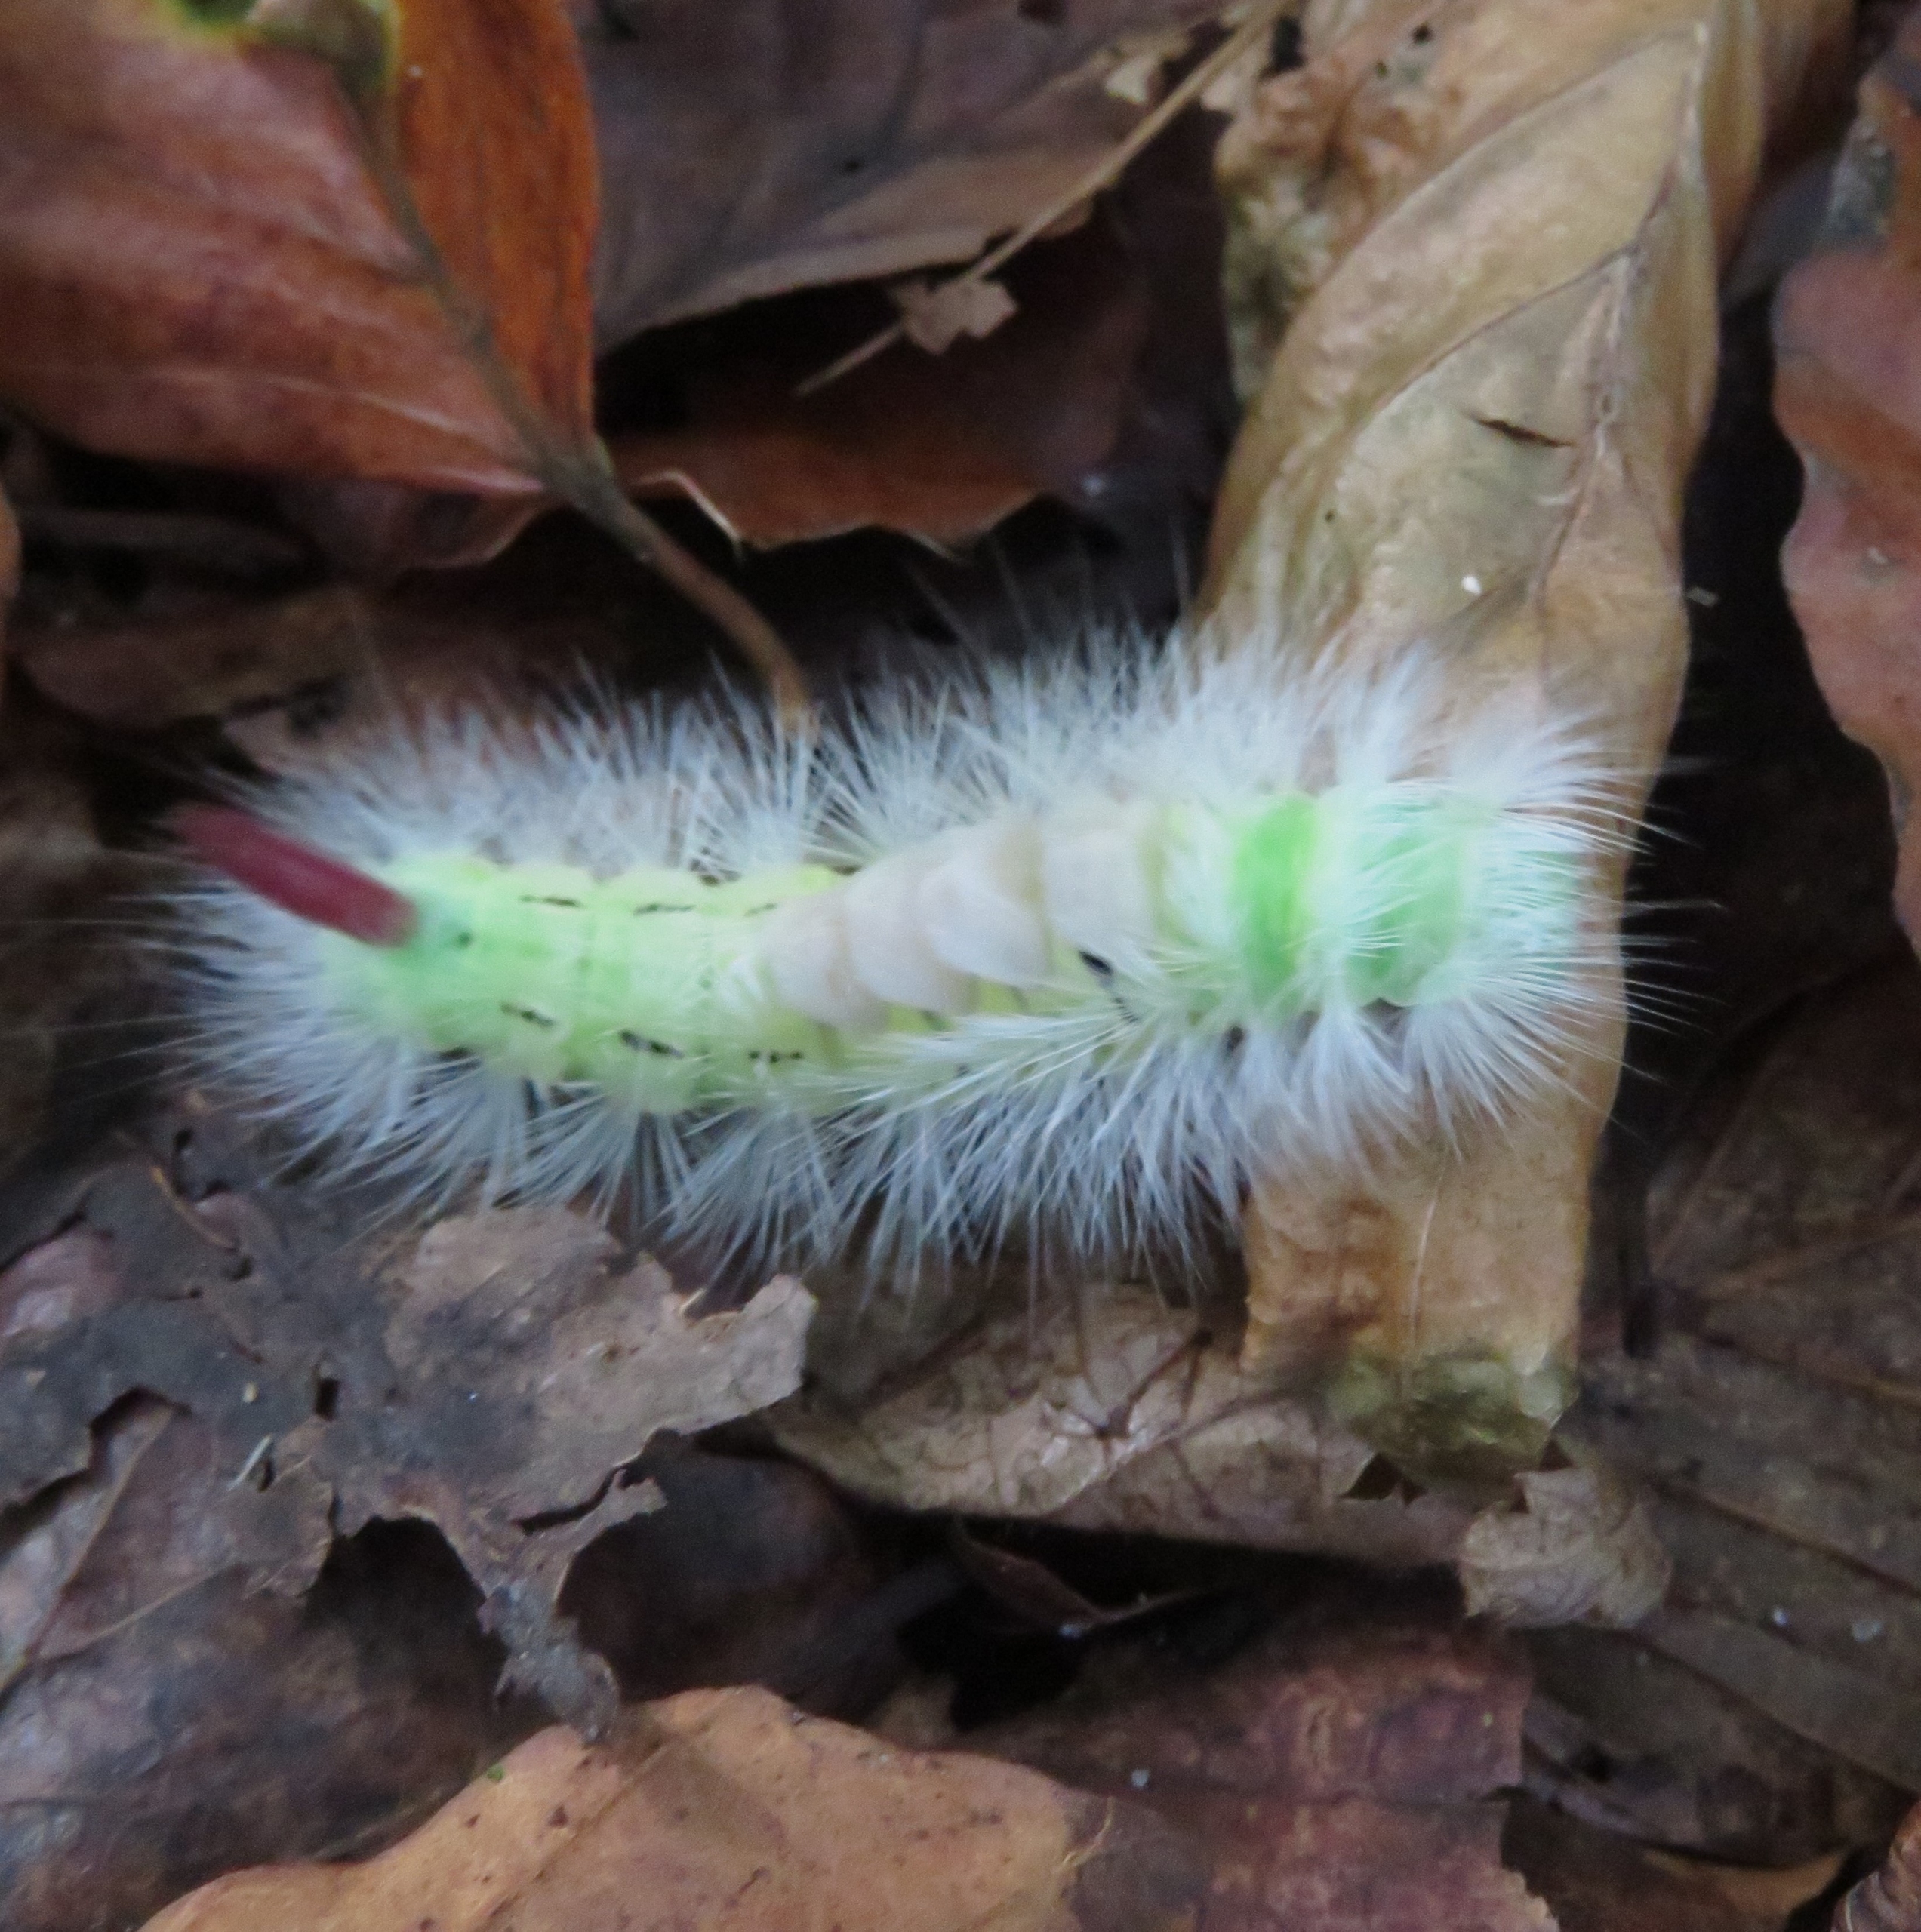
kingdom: Animalia
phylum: Arthropoda
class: Insecta
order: Lepidoptera
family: Erebidae
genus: Calliteara
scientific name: Calliteara pudibunda
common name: Bøgenonne
